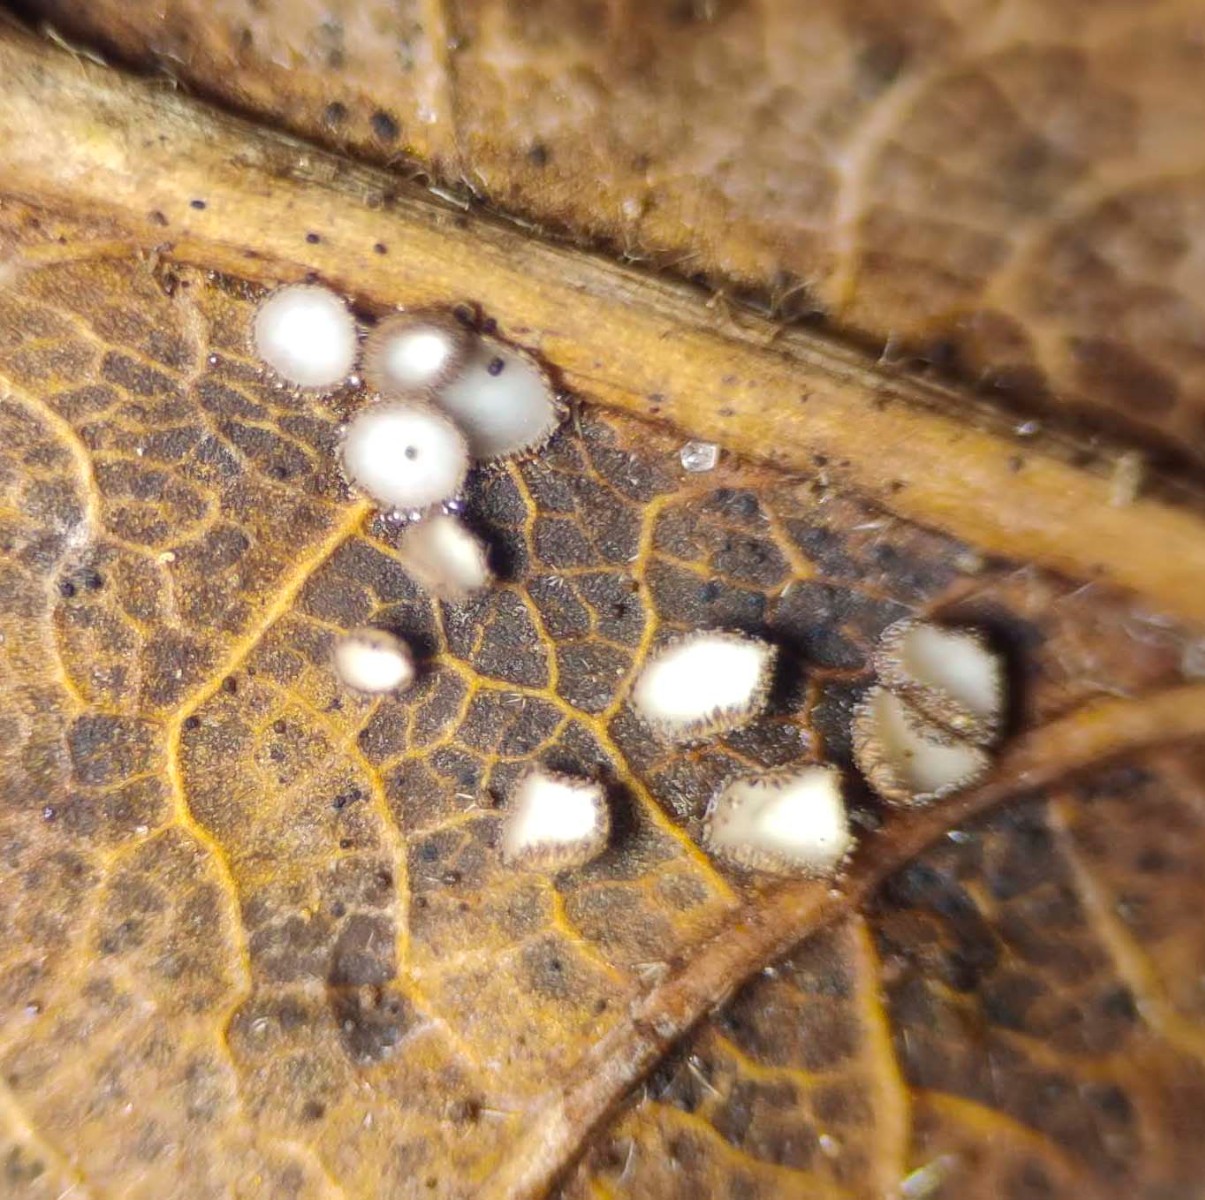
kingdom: Fungi
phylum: Ascomycota
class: Leotiomycetes
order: Helotiales
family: Lachnaceae
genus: Brunnipila
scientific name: Brunnipila brunneola
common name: læderbrun frynseskive
